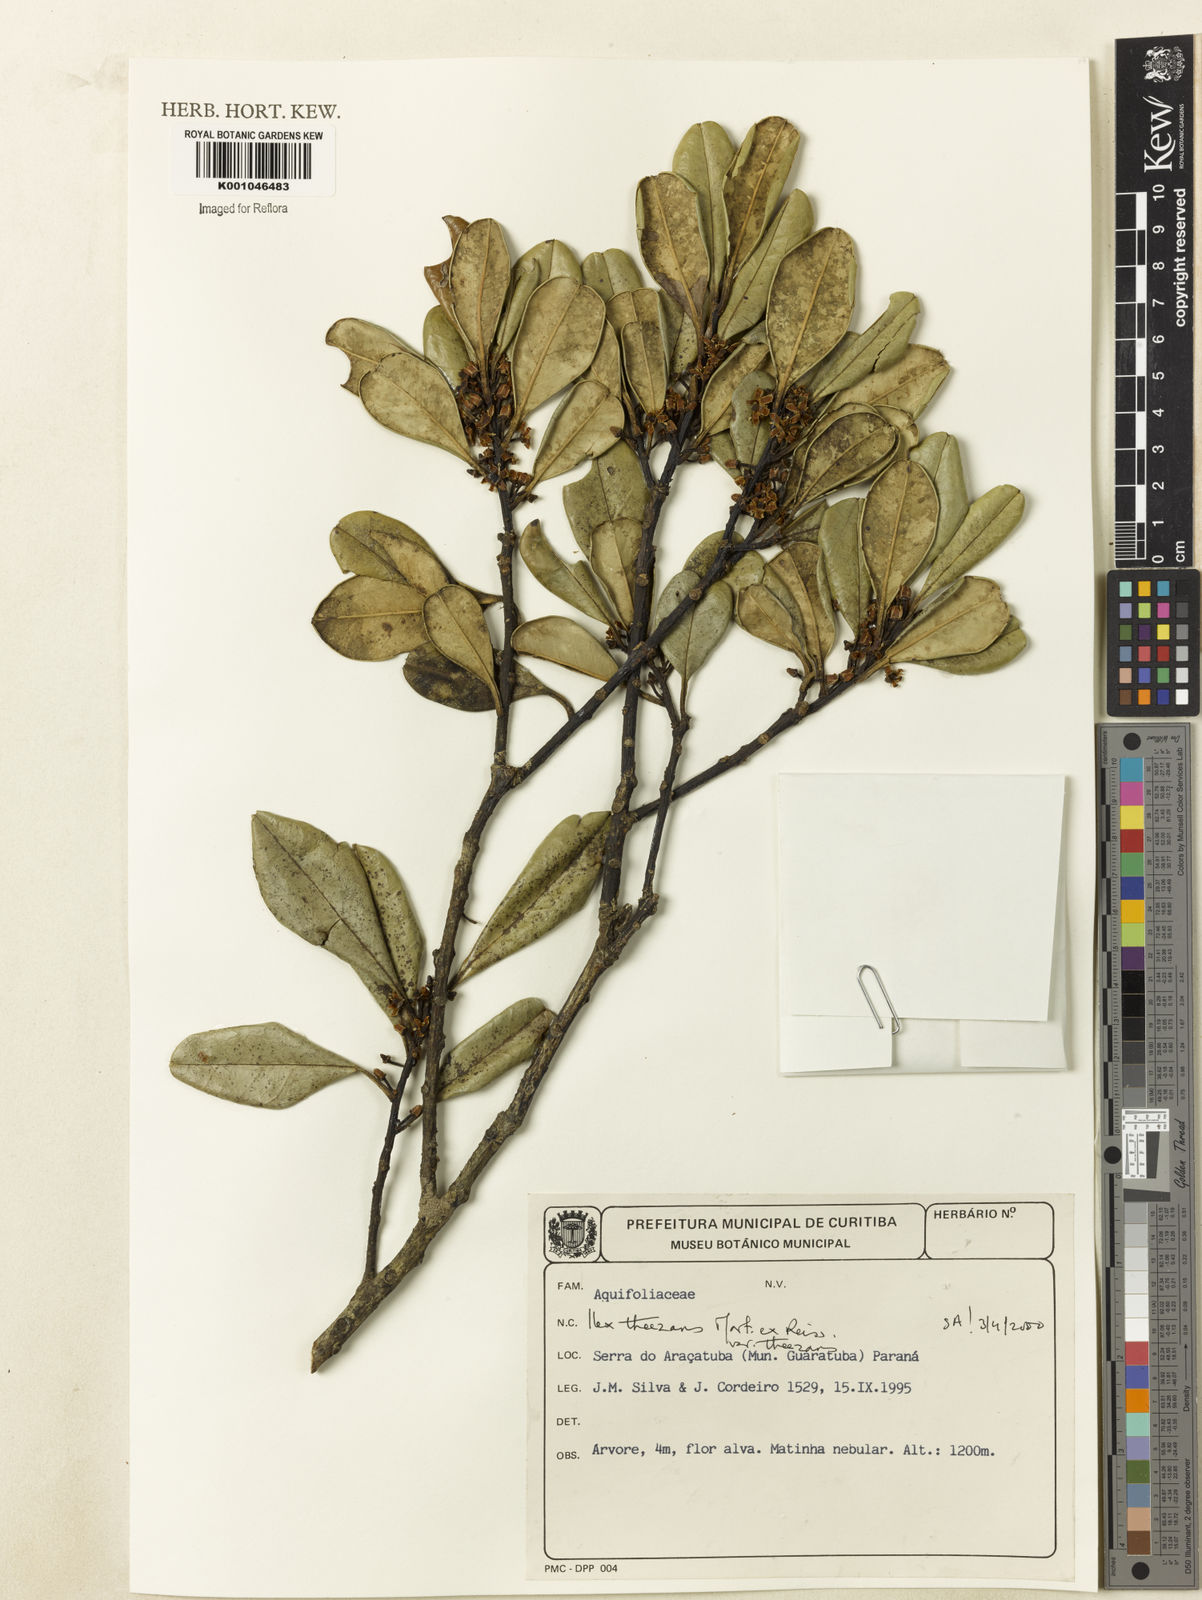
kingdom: Plantae
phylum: Tracheophyta
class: Magnoliopsida
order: Aquifoliales
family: Aquifoliaceae
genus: Ilex
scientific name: Ilex paraguariensis
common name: Paraguay tea
